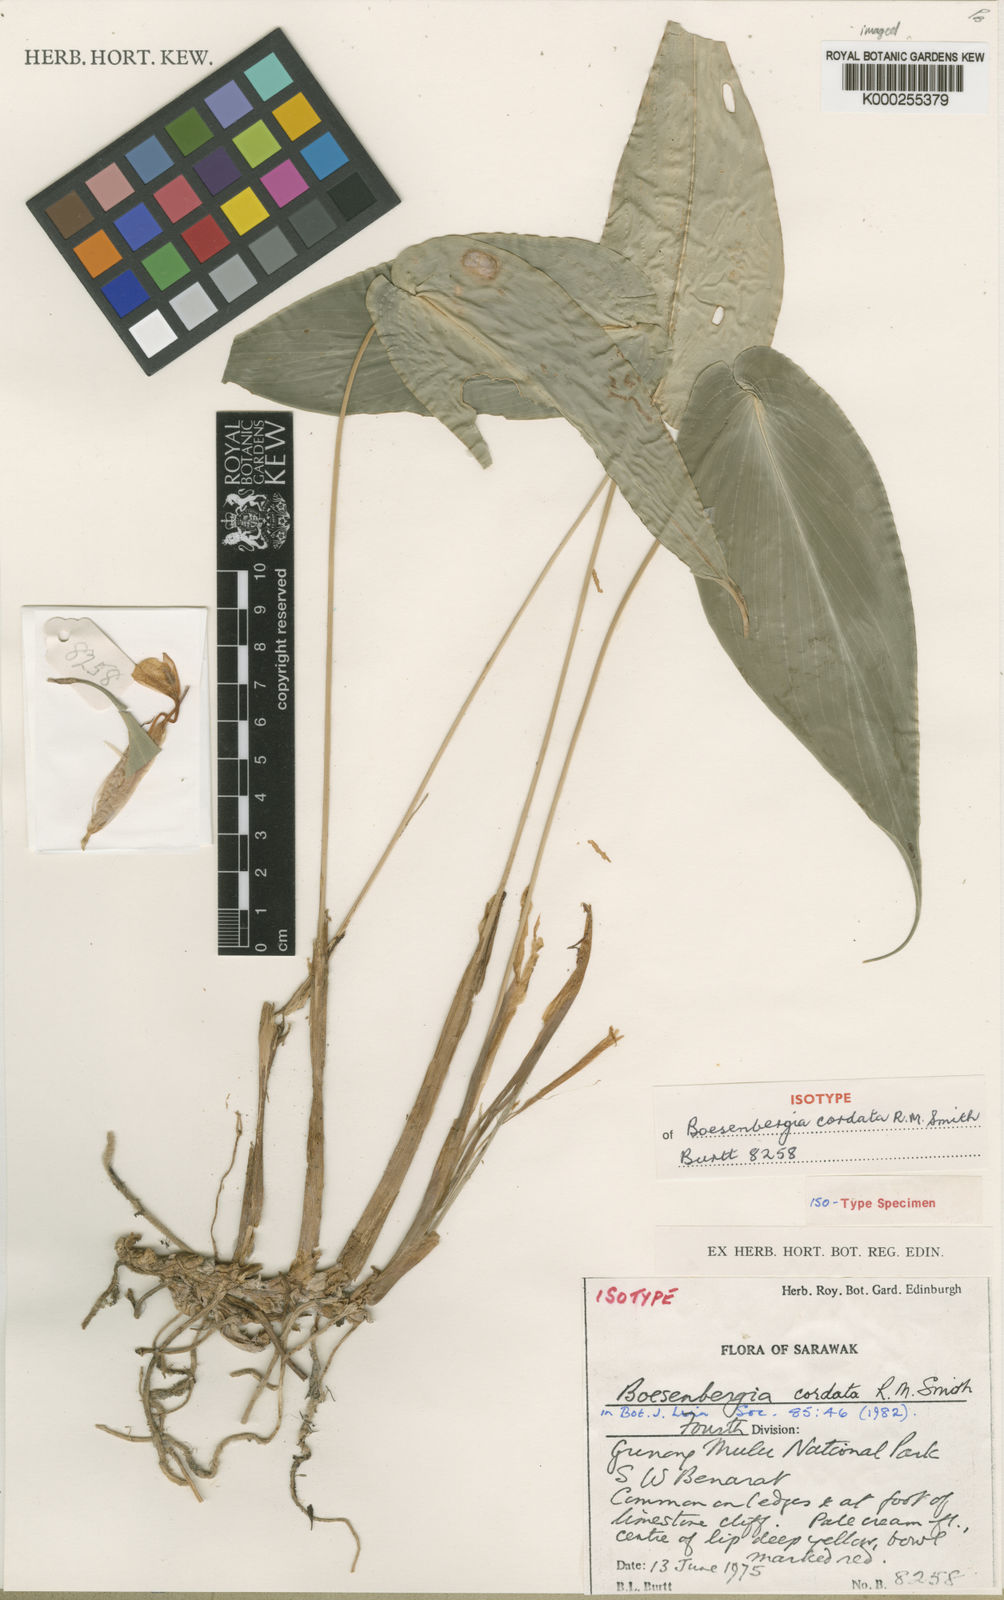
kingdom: Plantae
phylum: Tracheophyta
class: Liliopsida
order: Zingiberales
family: Zingiberaceae
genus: Boesenbergia
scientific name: Boesenbergia cordata
